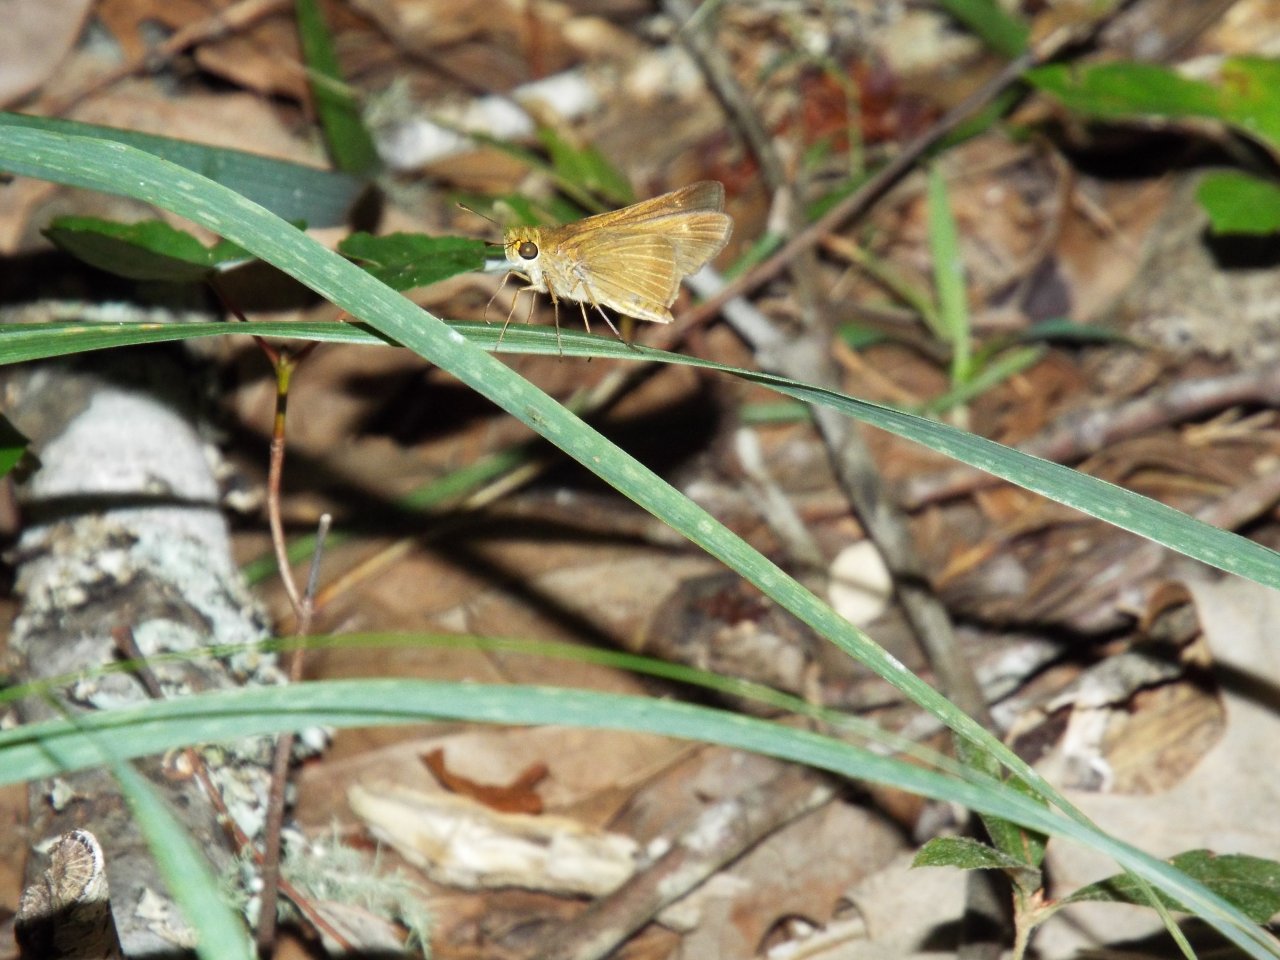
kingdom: Animalia
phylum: Arthropoda
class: Insecta
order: Lepidoptera
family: Hesperiidae
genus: Panoquina
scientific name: Panoquina ocola
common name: Ocola Skipper
